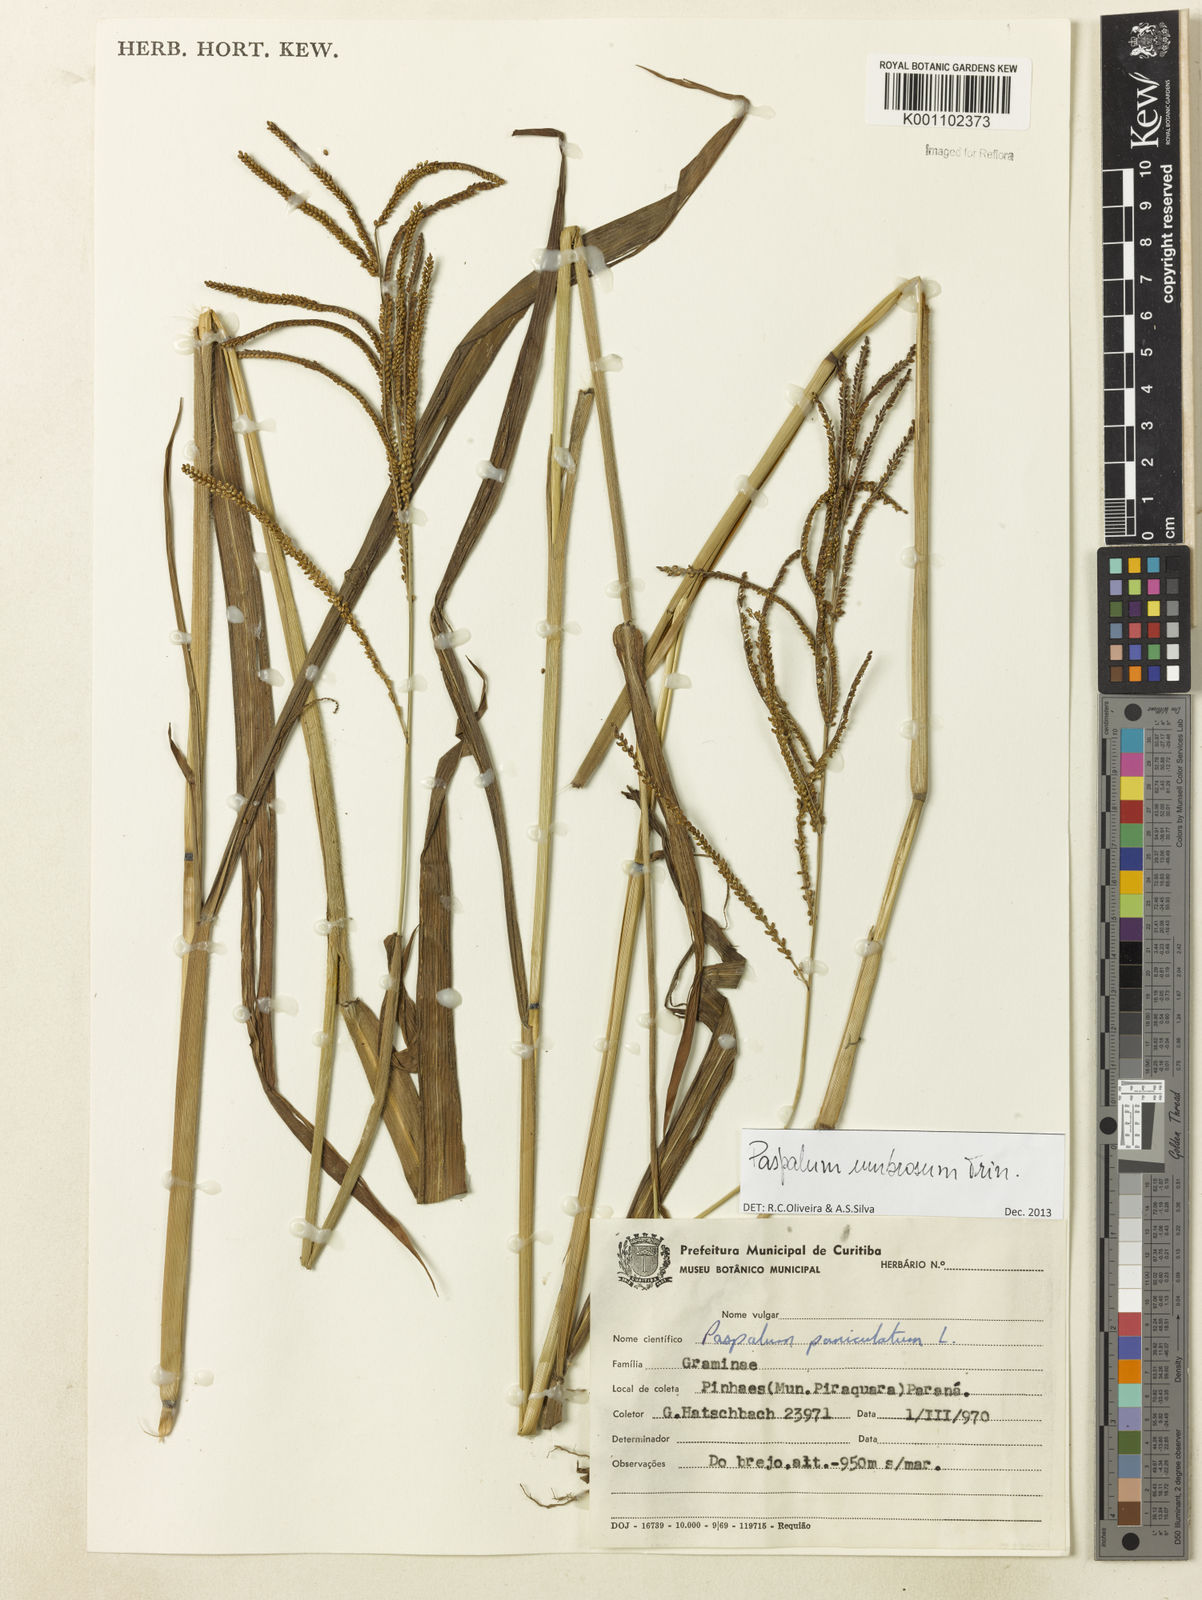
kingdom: Plantae
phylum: Tracheophyta
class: Liliopsida
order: Poales
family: Poaceae
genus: Paspalum
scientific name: Paspalum umbrosum
